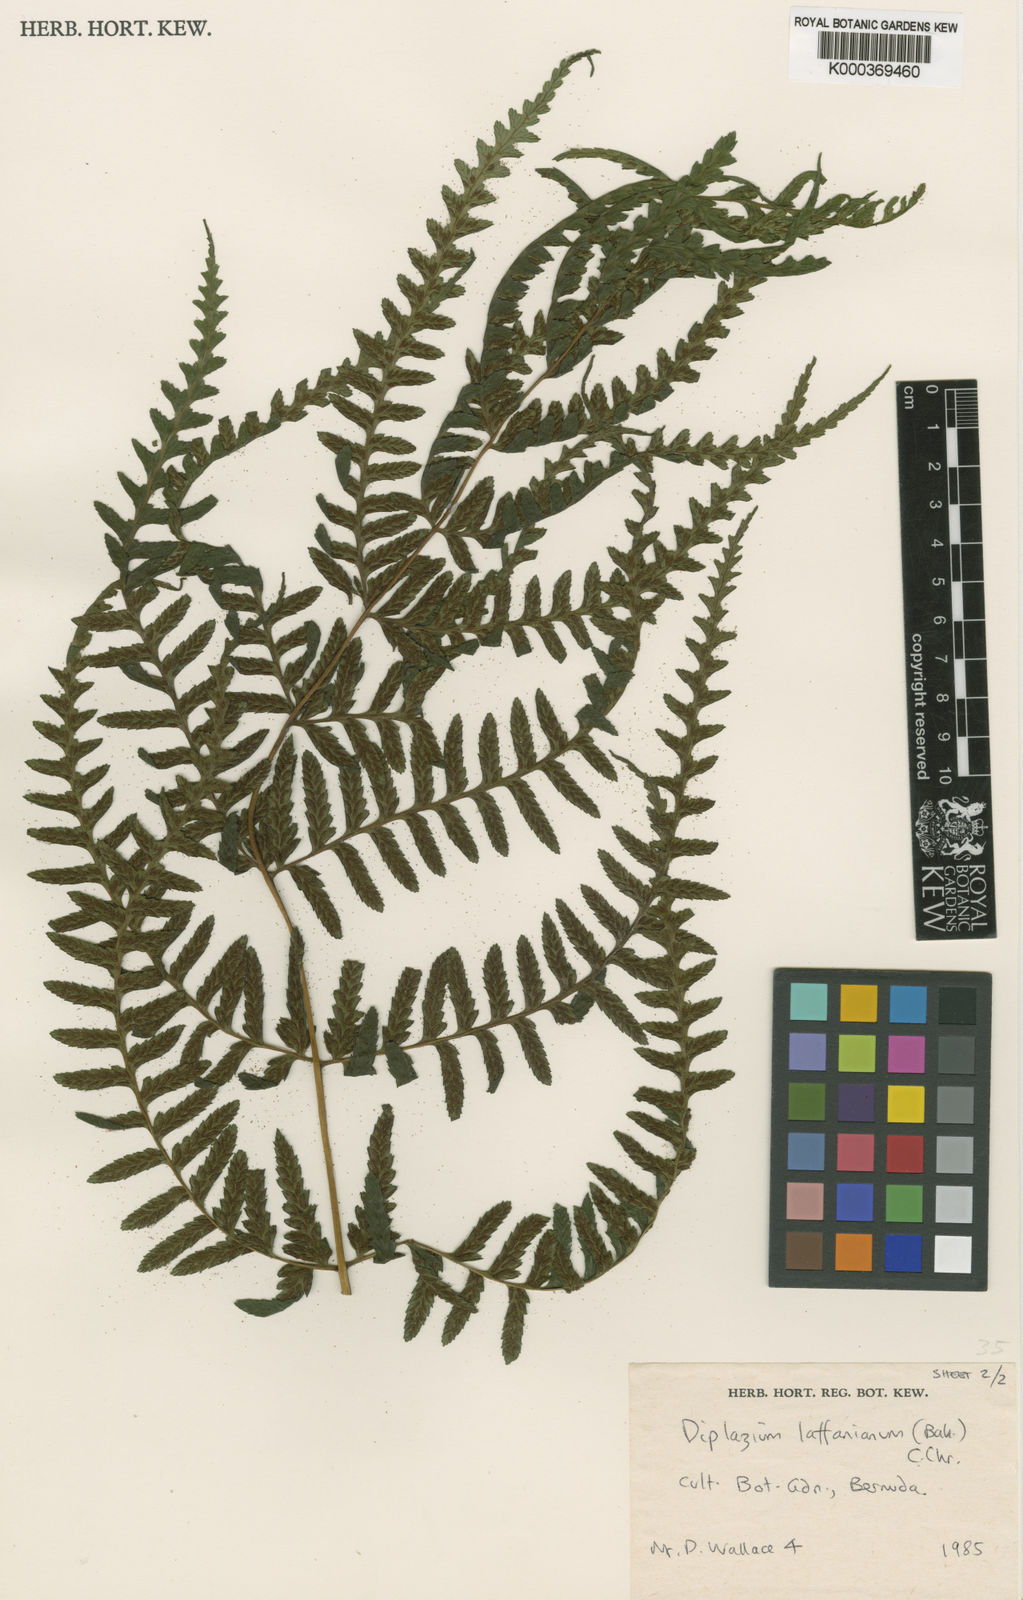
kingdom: Plantae
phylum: Tracheophyta
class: Polypodiopsida
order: Polypodiales
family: Athyriaceae
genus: Diplazium
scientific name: Diplazium laffanianum
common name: Governor laffan's fern
